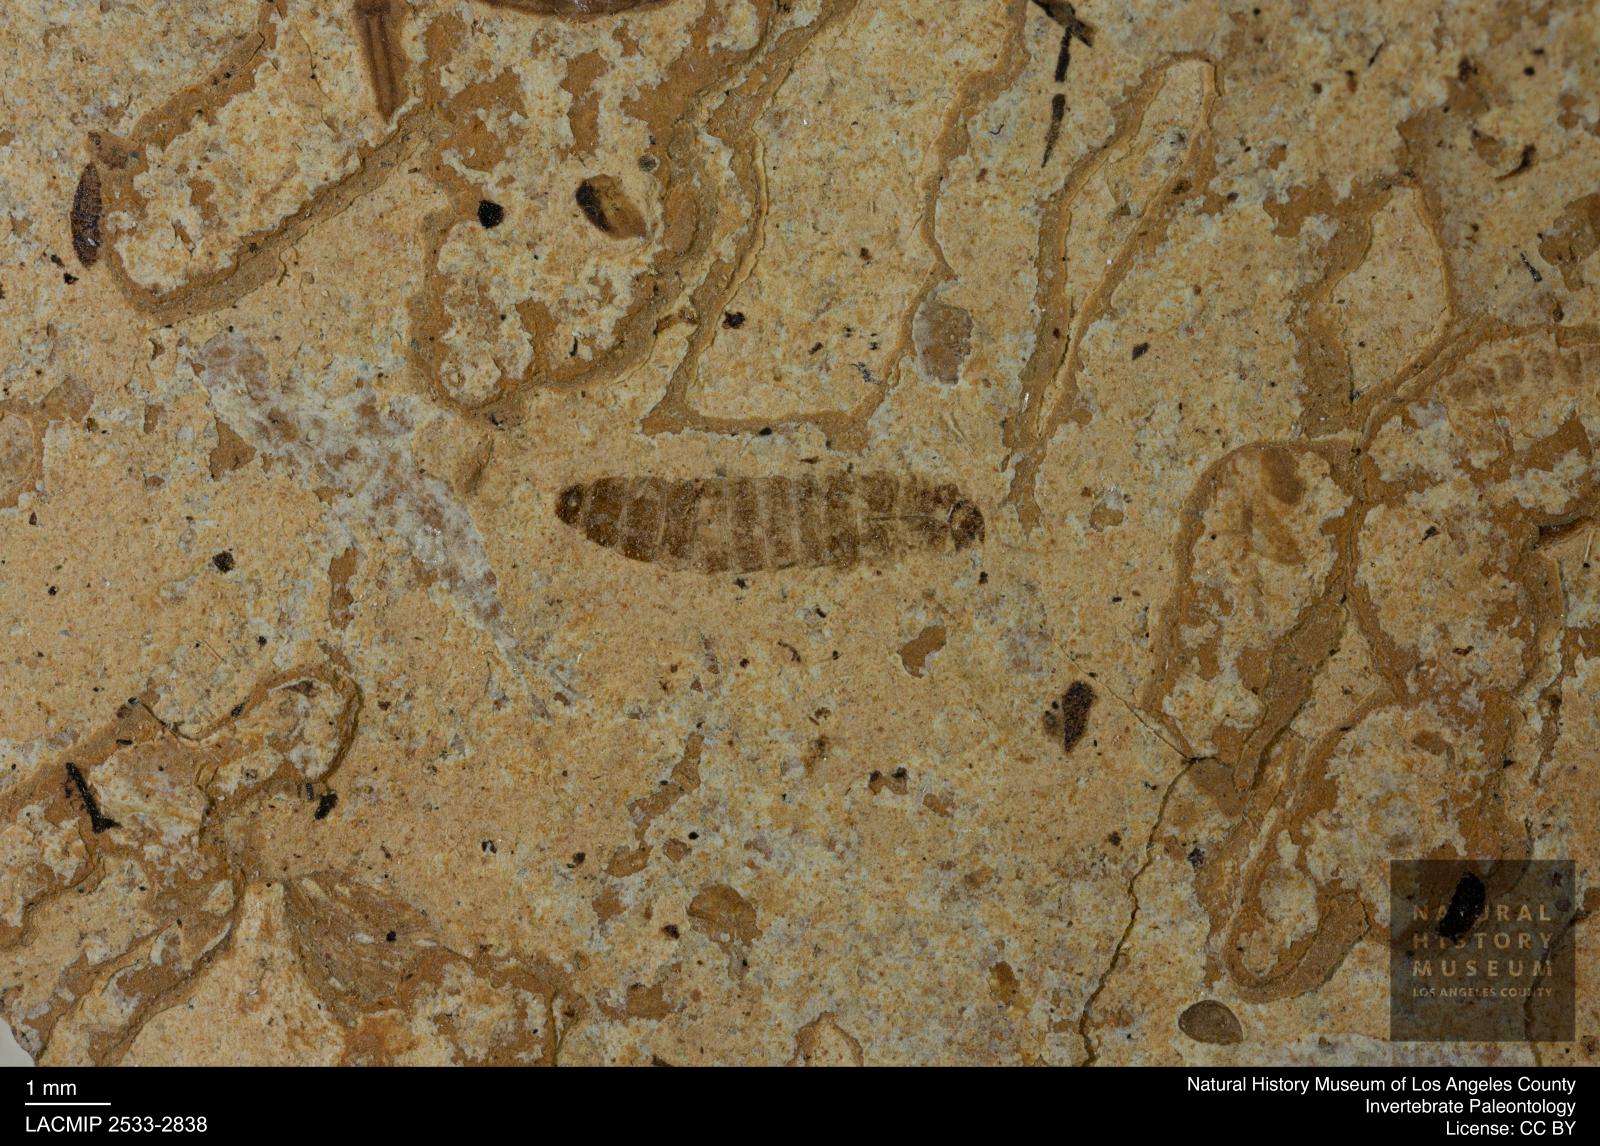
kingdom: Animalia
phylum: Arthropoda
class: Insecta
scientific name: Insecta
